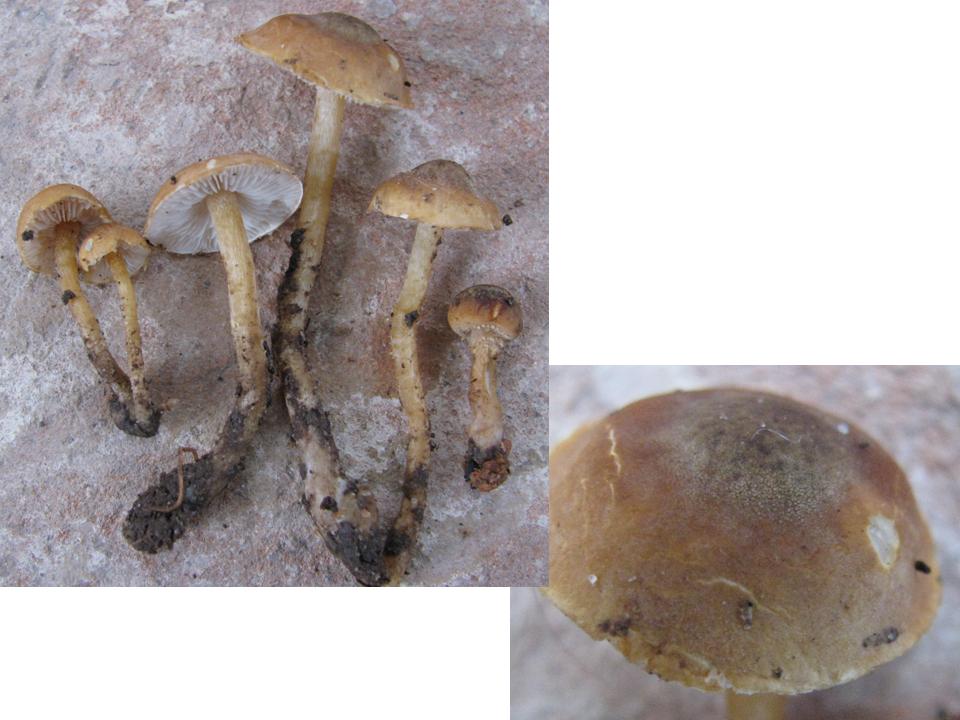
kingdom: Fungi
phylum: Basidiomycota
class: Agaricomycetes
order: Agaricales
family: Tricholomataceae
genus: Cystoderma
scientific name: Cystoderma simulatum
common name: ved-grynhat
